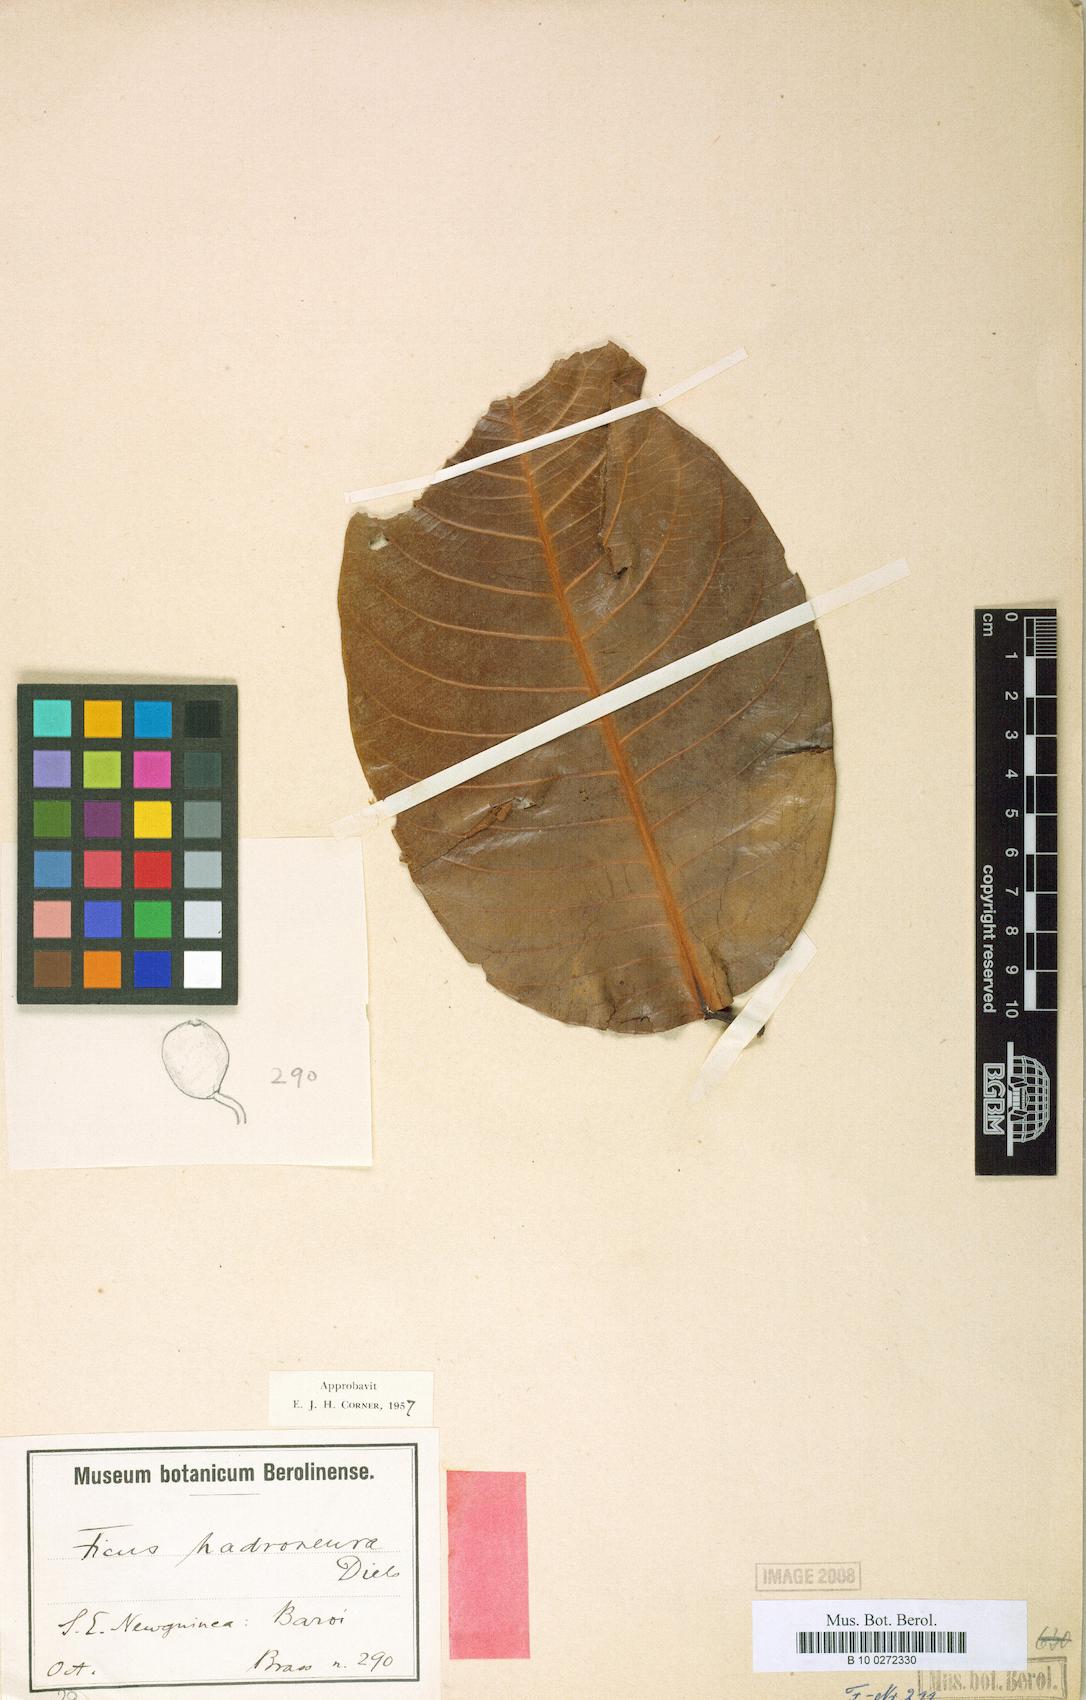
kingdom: Plantae
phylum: Tracheophyta
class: Magnoliopsida
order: Rosales
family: Moraceae
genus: Ficus
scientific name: Ficus hadroneura
